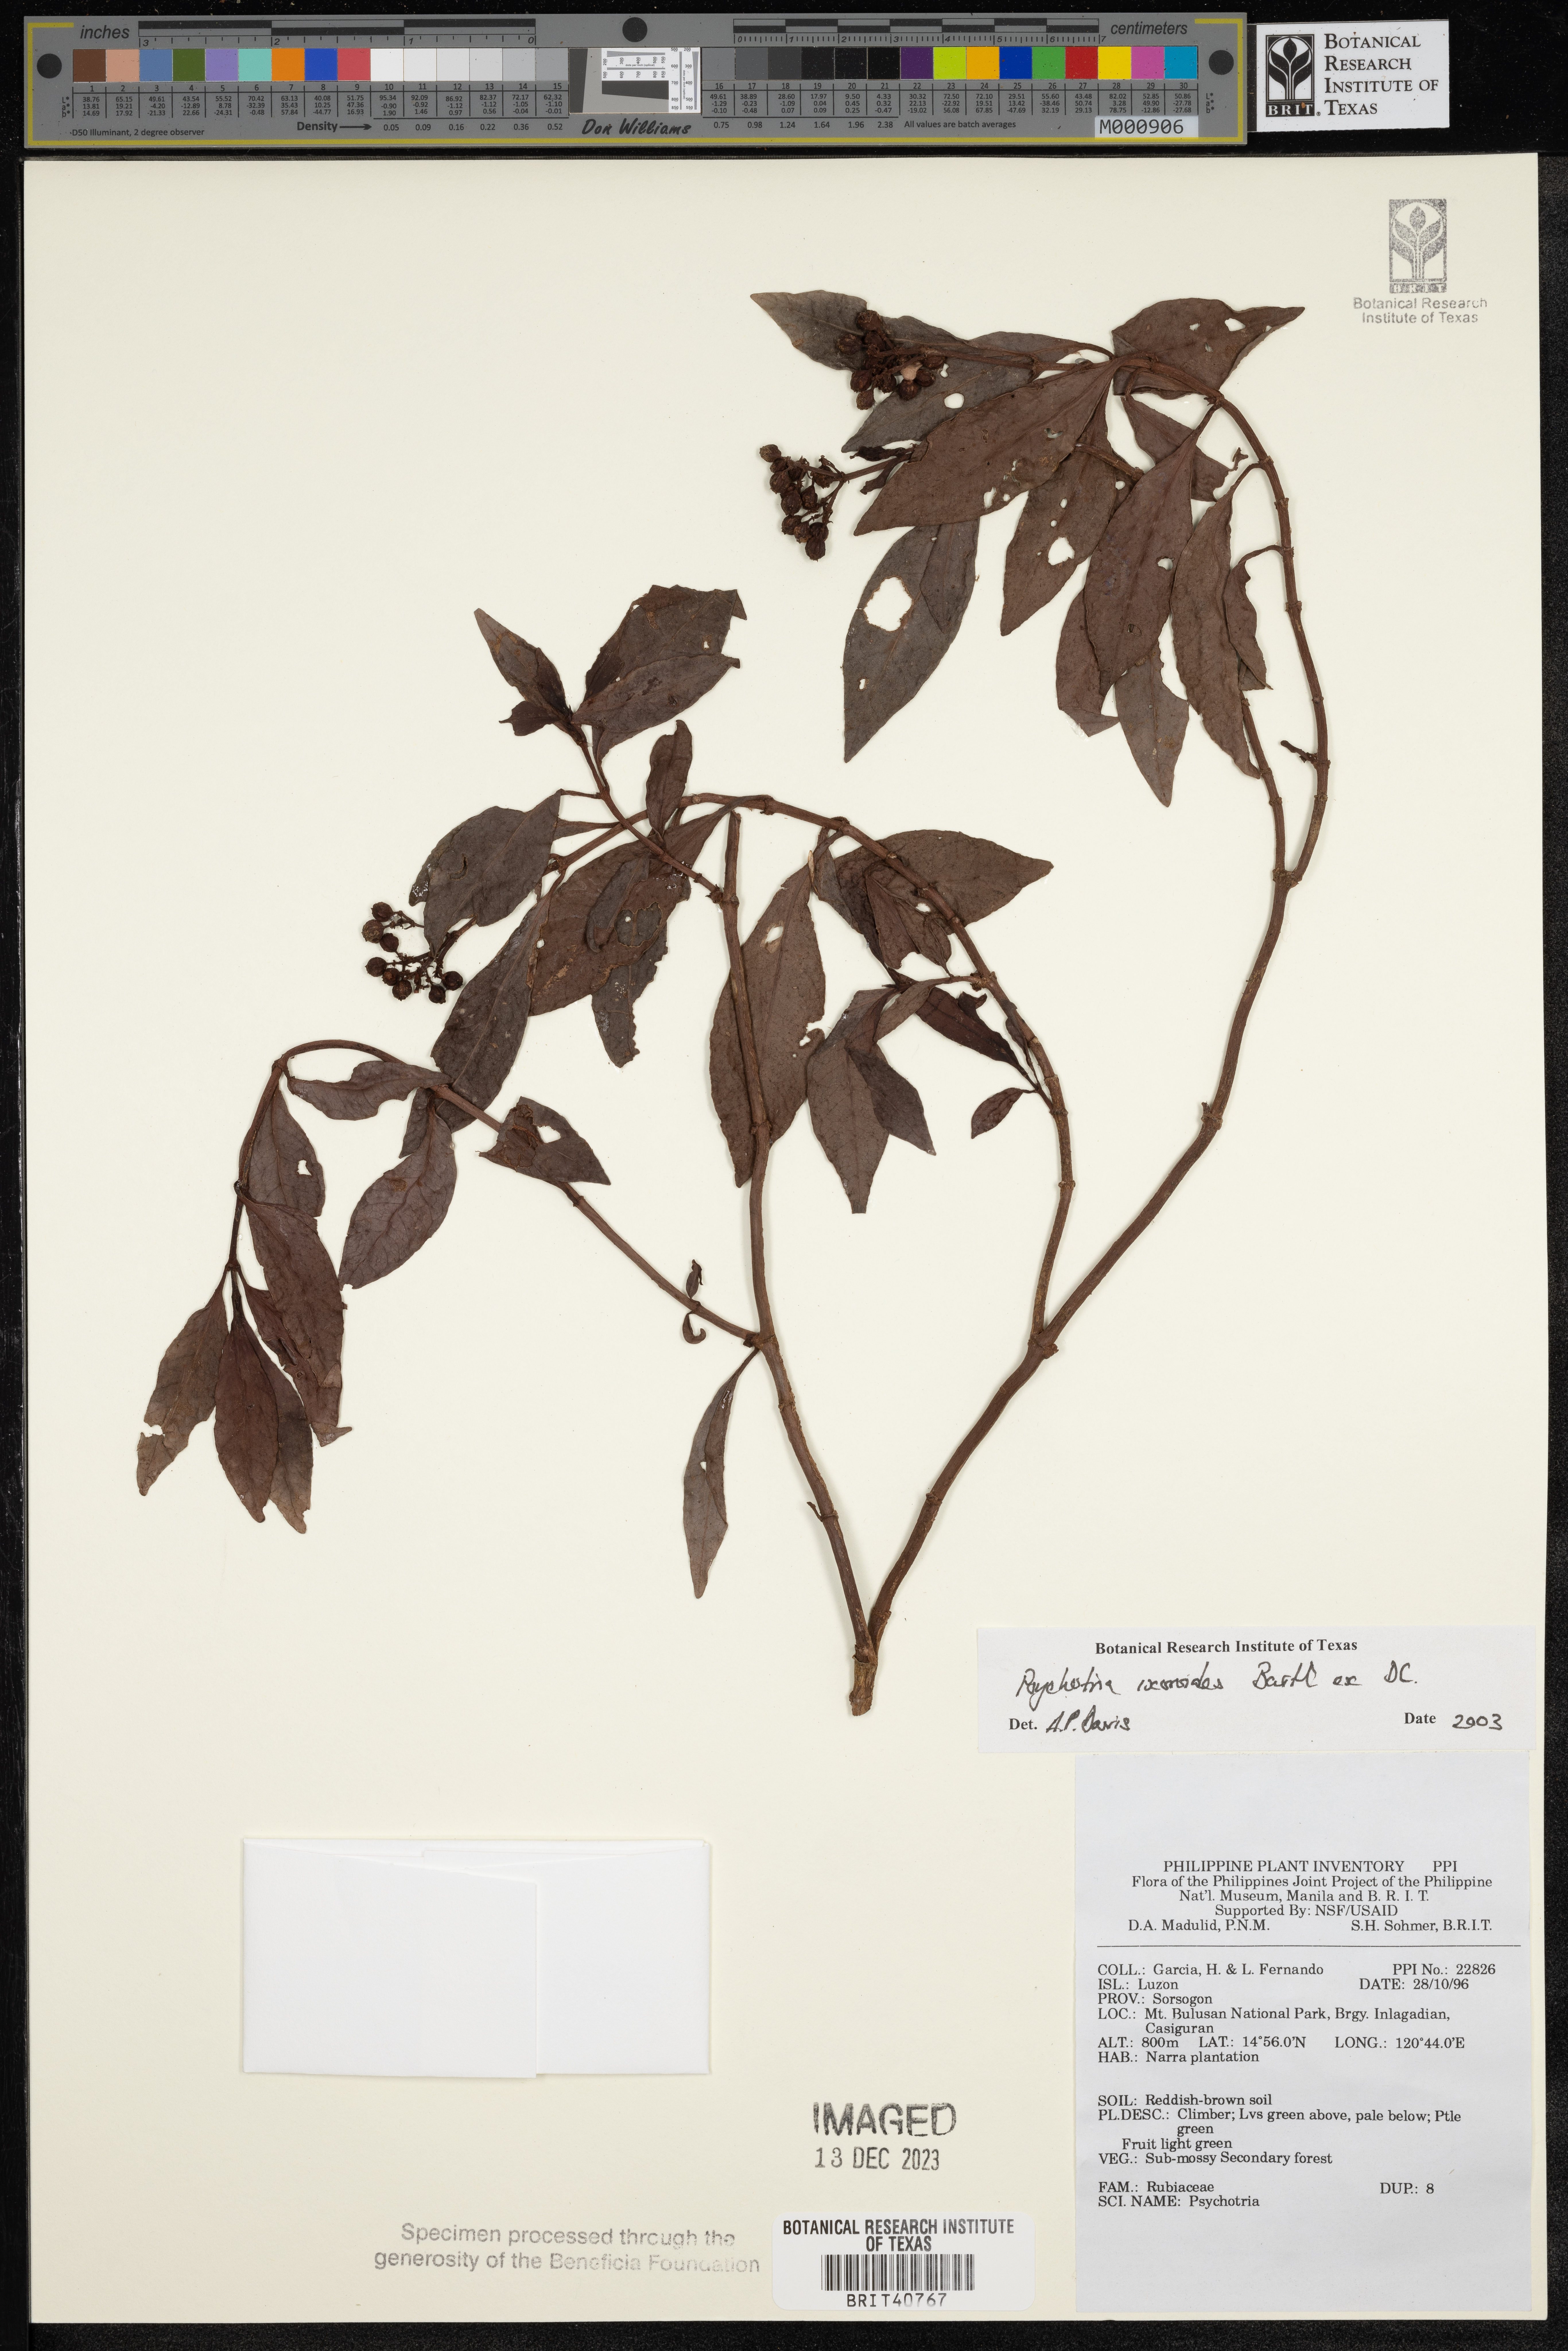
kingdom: Plantae
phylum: Tracheophyta
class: Magnoliopsida
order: Gentianales
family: Rubiaceae
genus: Psychotria
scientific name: Psychotria ixoroides
